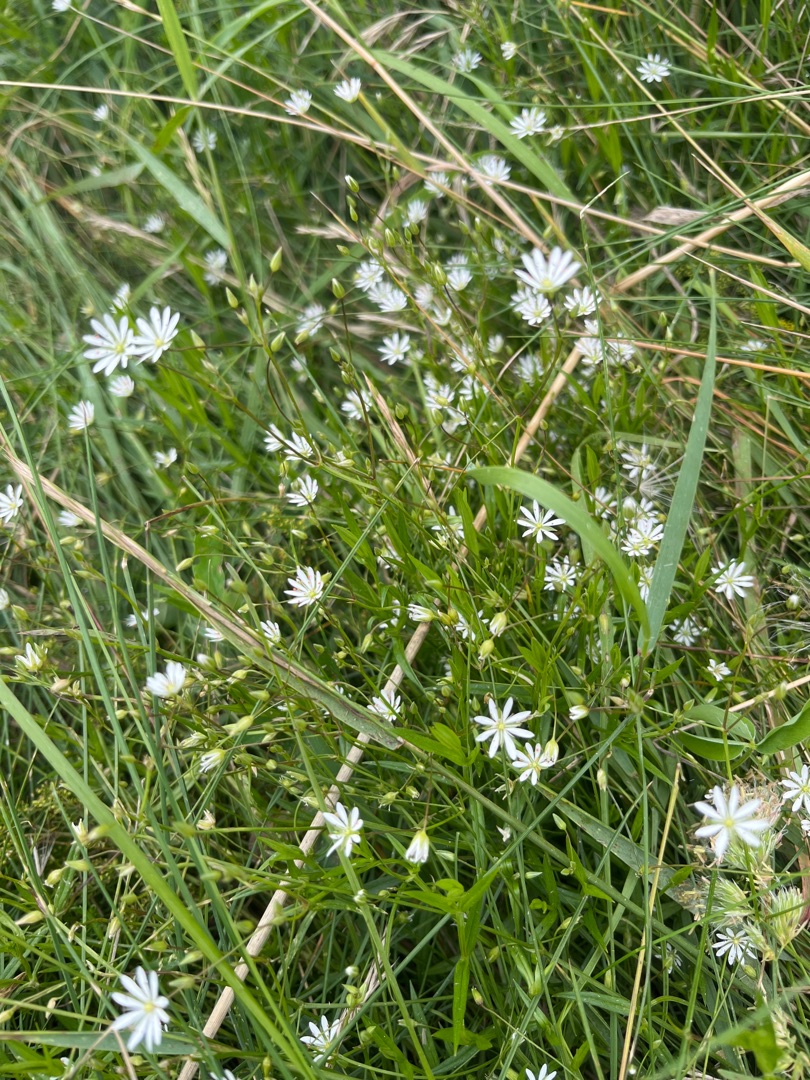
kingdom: Plantae
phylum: Tracheophyta
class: Magnoliopsida
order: Caryophyllales
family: Caryophyllaceae
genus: Stellaria
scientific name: Stellaria graminea
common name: Græsbladet fladstjerne
